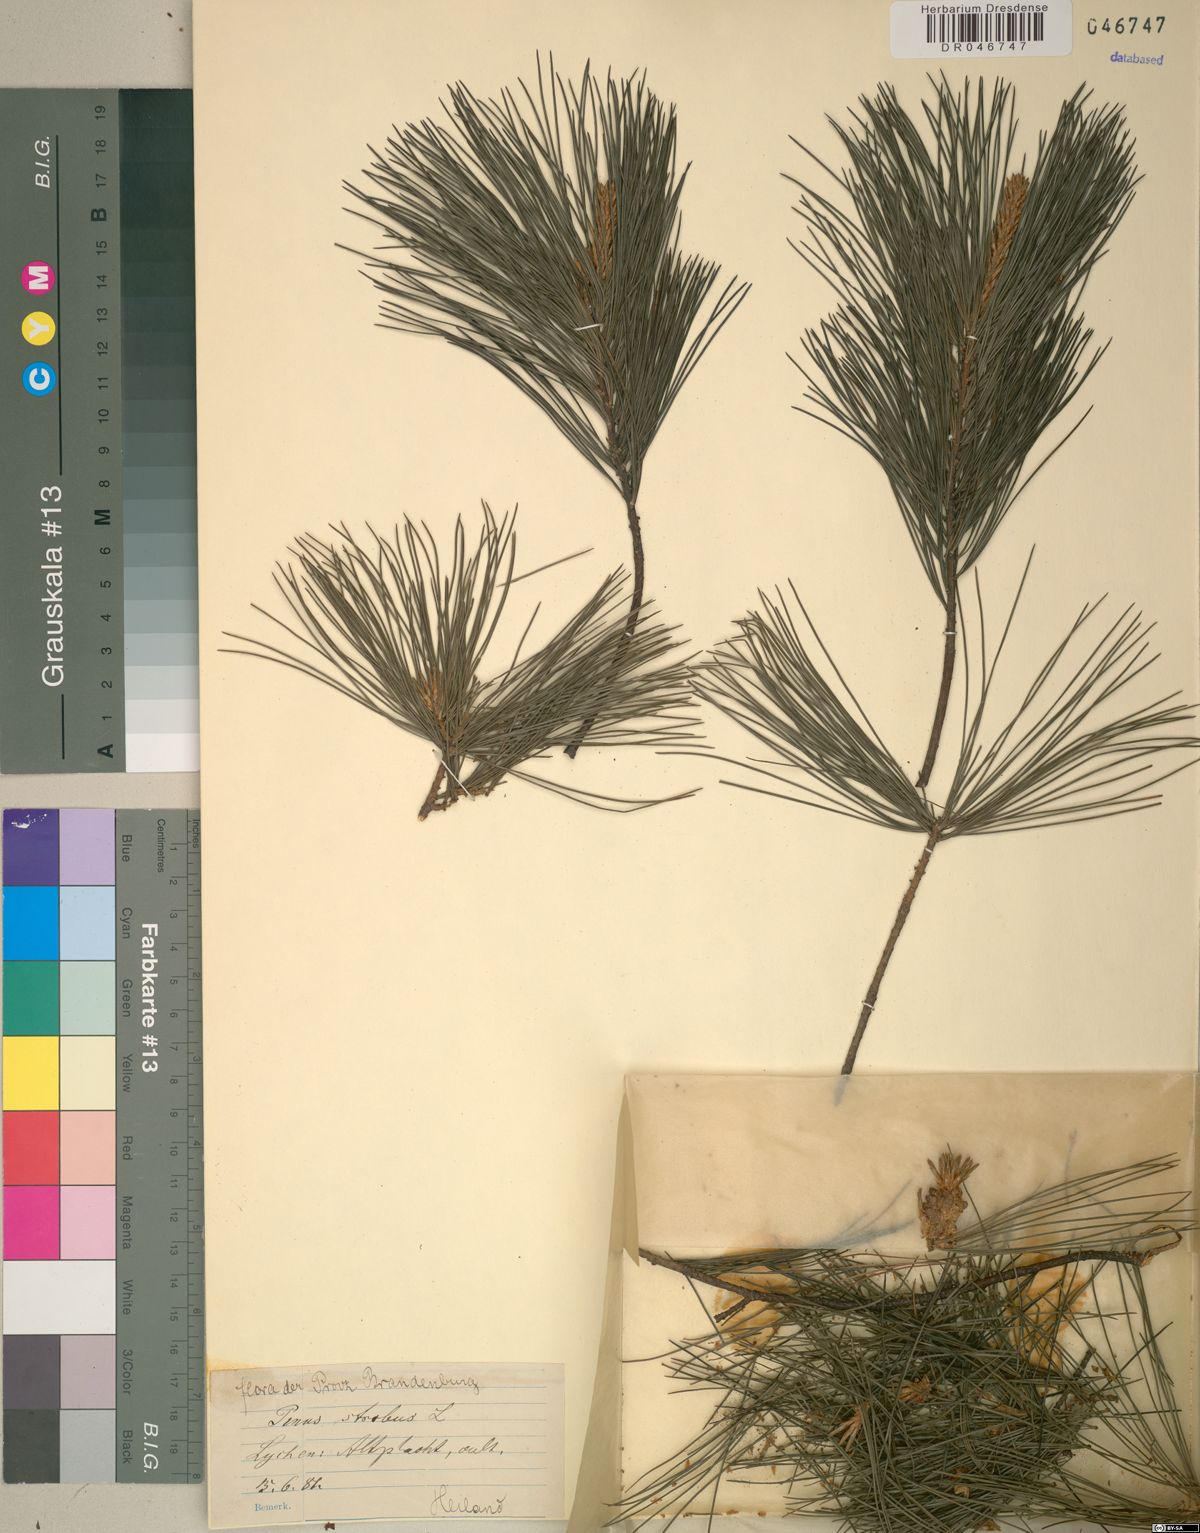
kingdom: Plantae
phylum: Tracheophyta
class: Pinopsida
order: Pinales
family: Pinaceae
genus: Pinus
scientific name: Pinus strobus
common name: Weymouth pine
